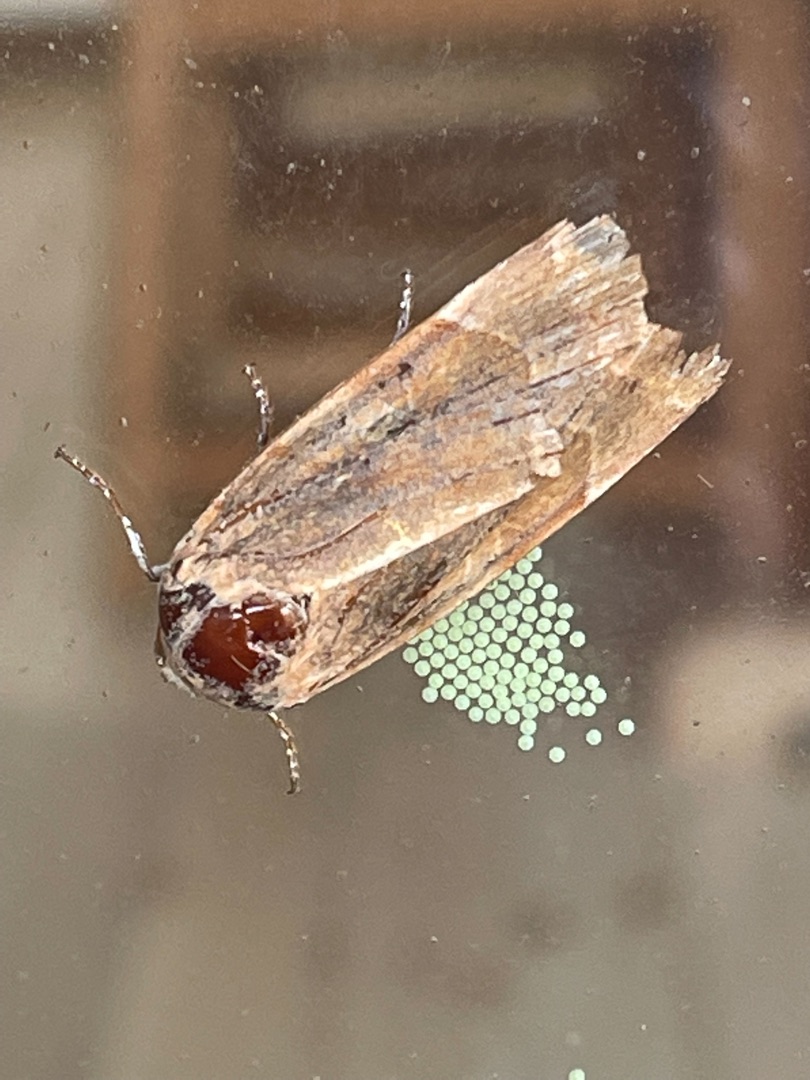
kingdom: Animalia
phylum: Arthropoda
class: Insecta
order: Lepidoptera
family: Noctuidae
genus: Noctua
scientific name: Noctua fimbriata
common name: Gul båndugle
